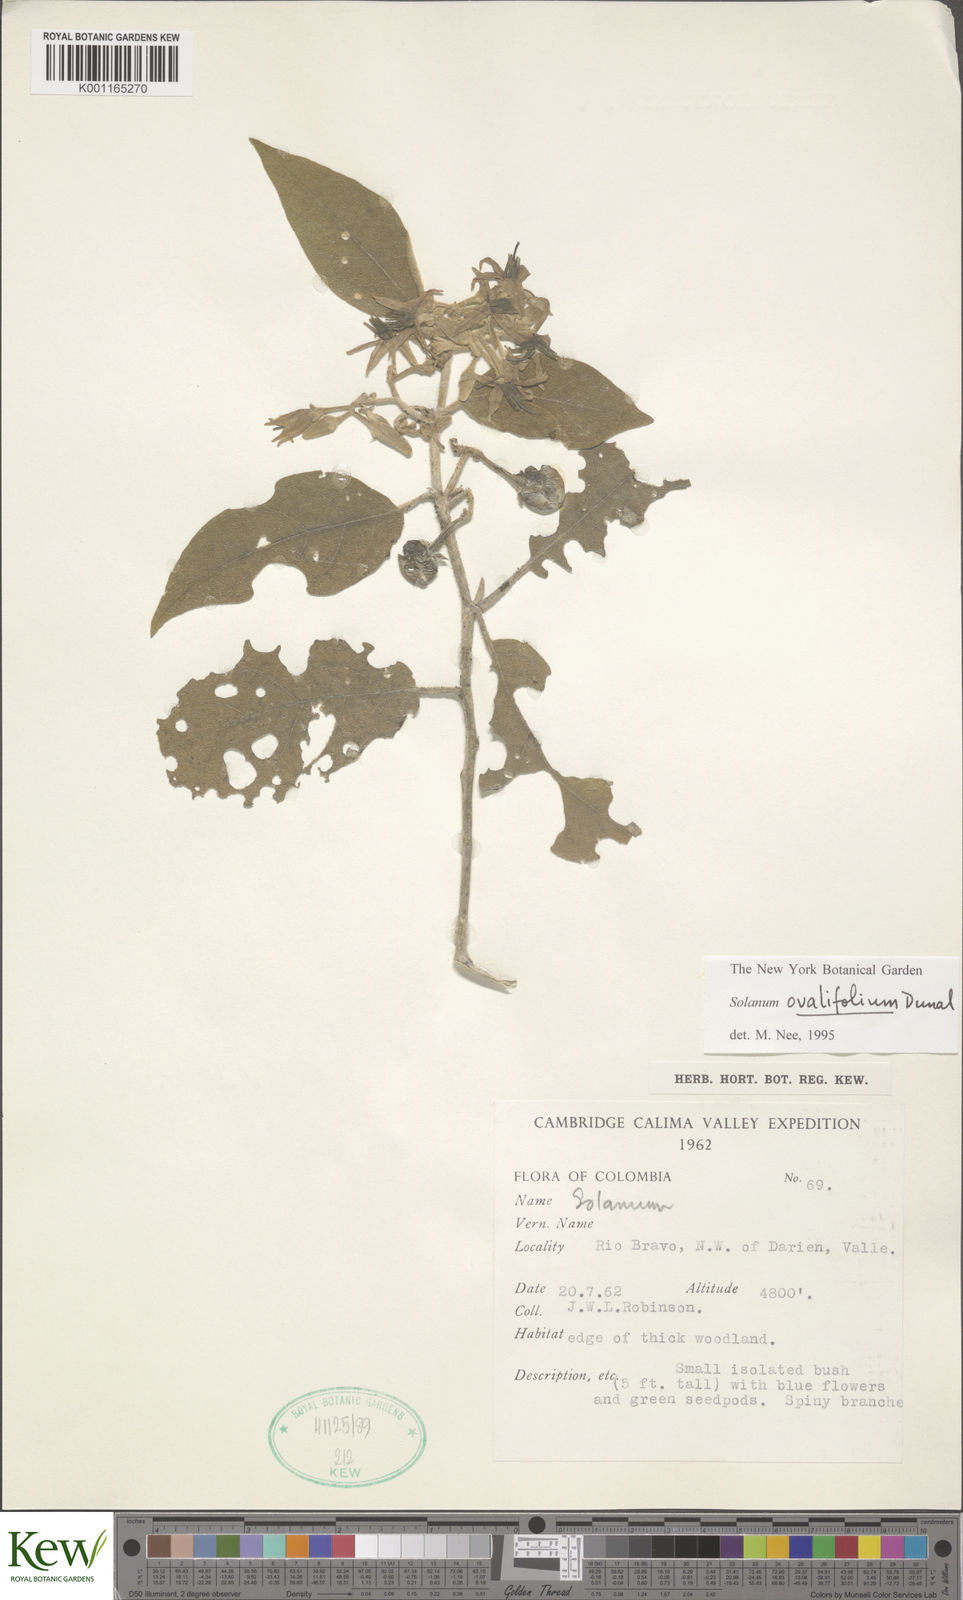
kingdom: Plantae
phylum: Tracheophyta
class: Magnoliopsida
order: Solanales
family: Solanaceae
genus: Solanum
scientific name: Solanum ovalifolium
